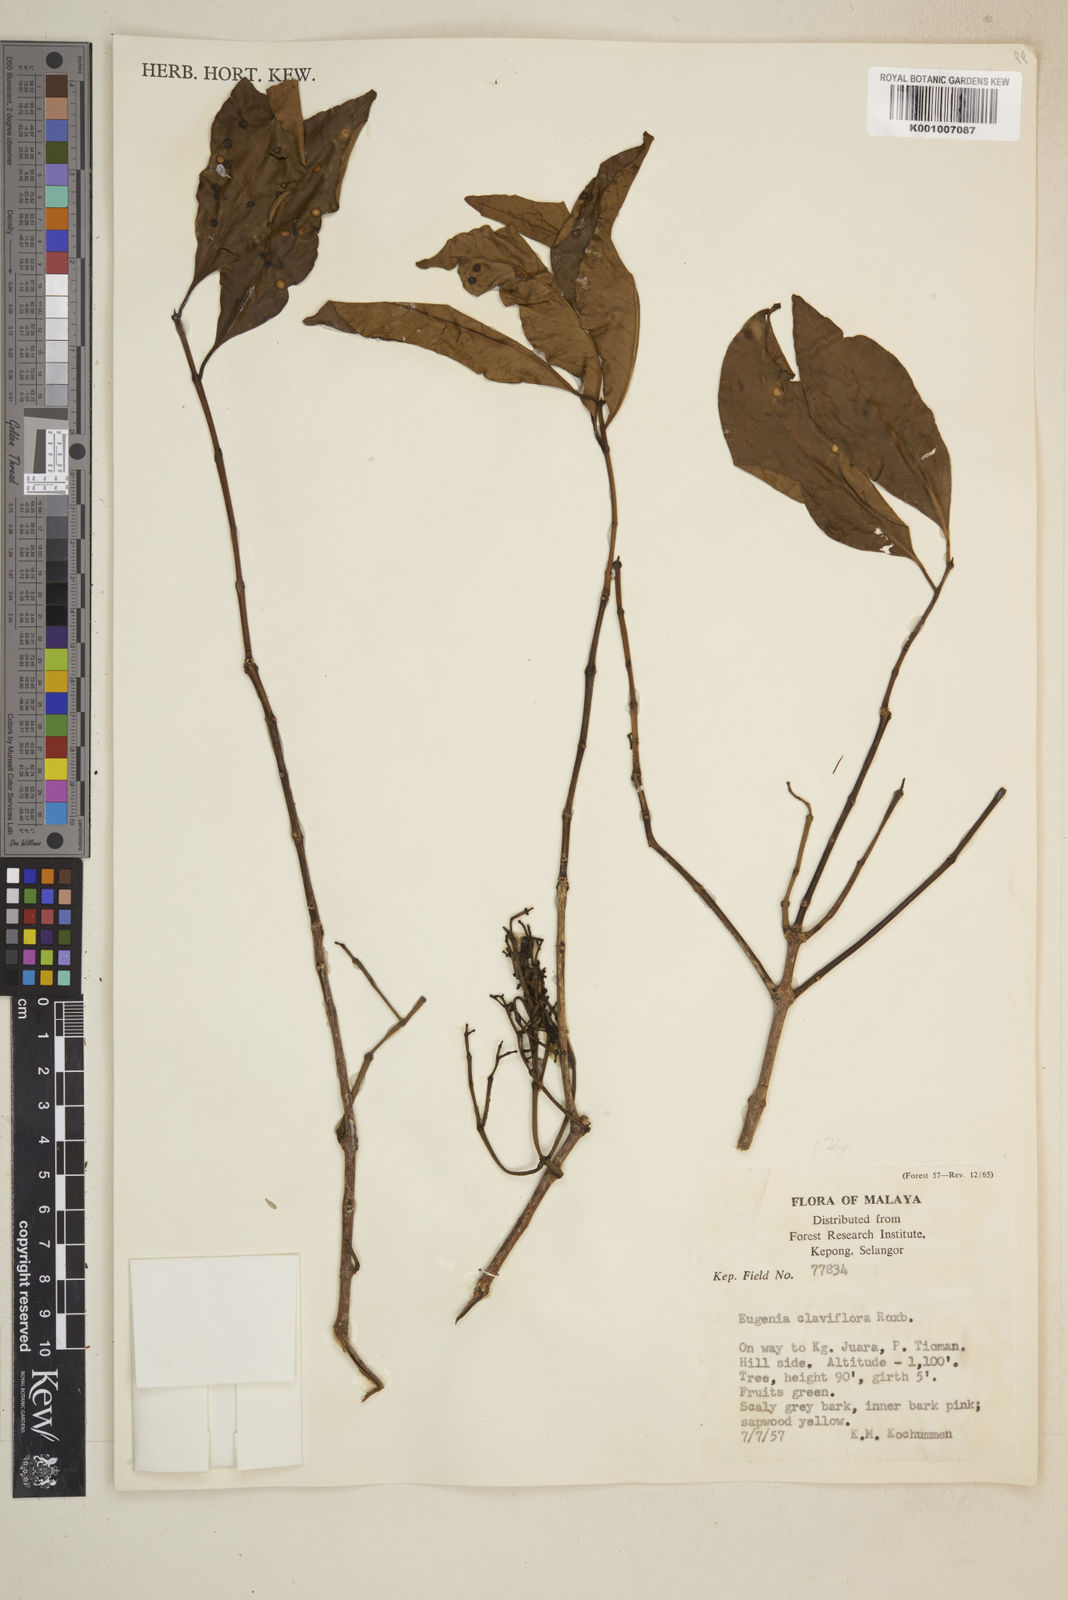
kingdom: Plantae
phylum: Tracheophyta
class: Magnoliopsida
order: Myrtales
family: Myrtaceae
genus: Syzygium
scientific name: Syzygium claviflorum
